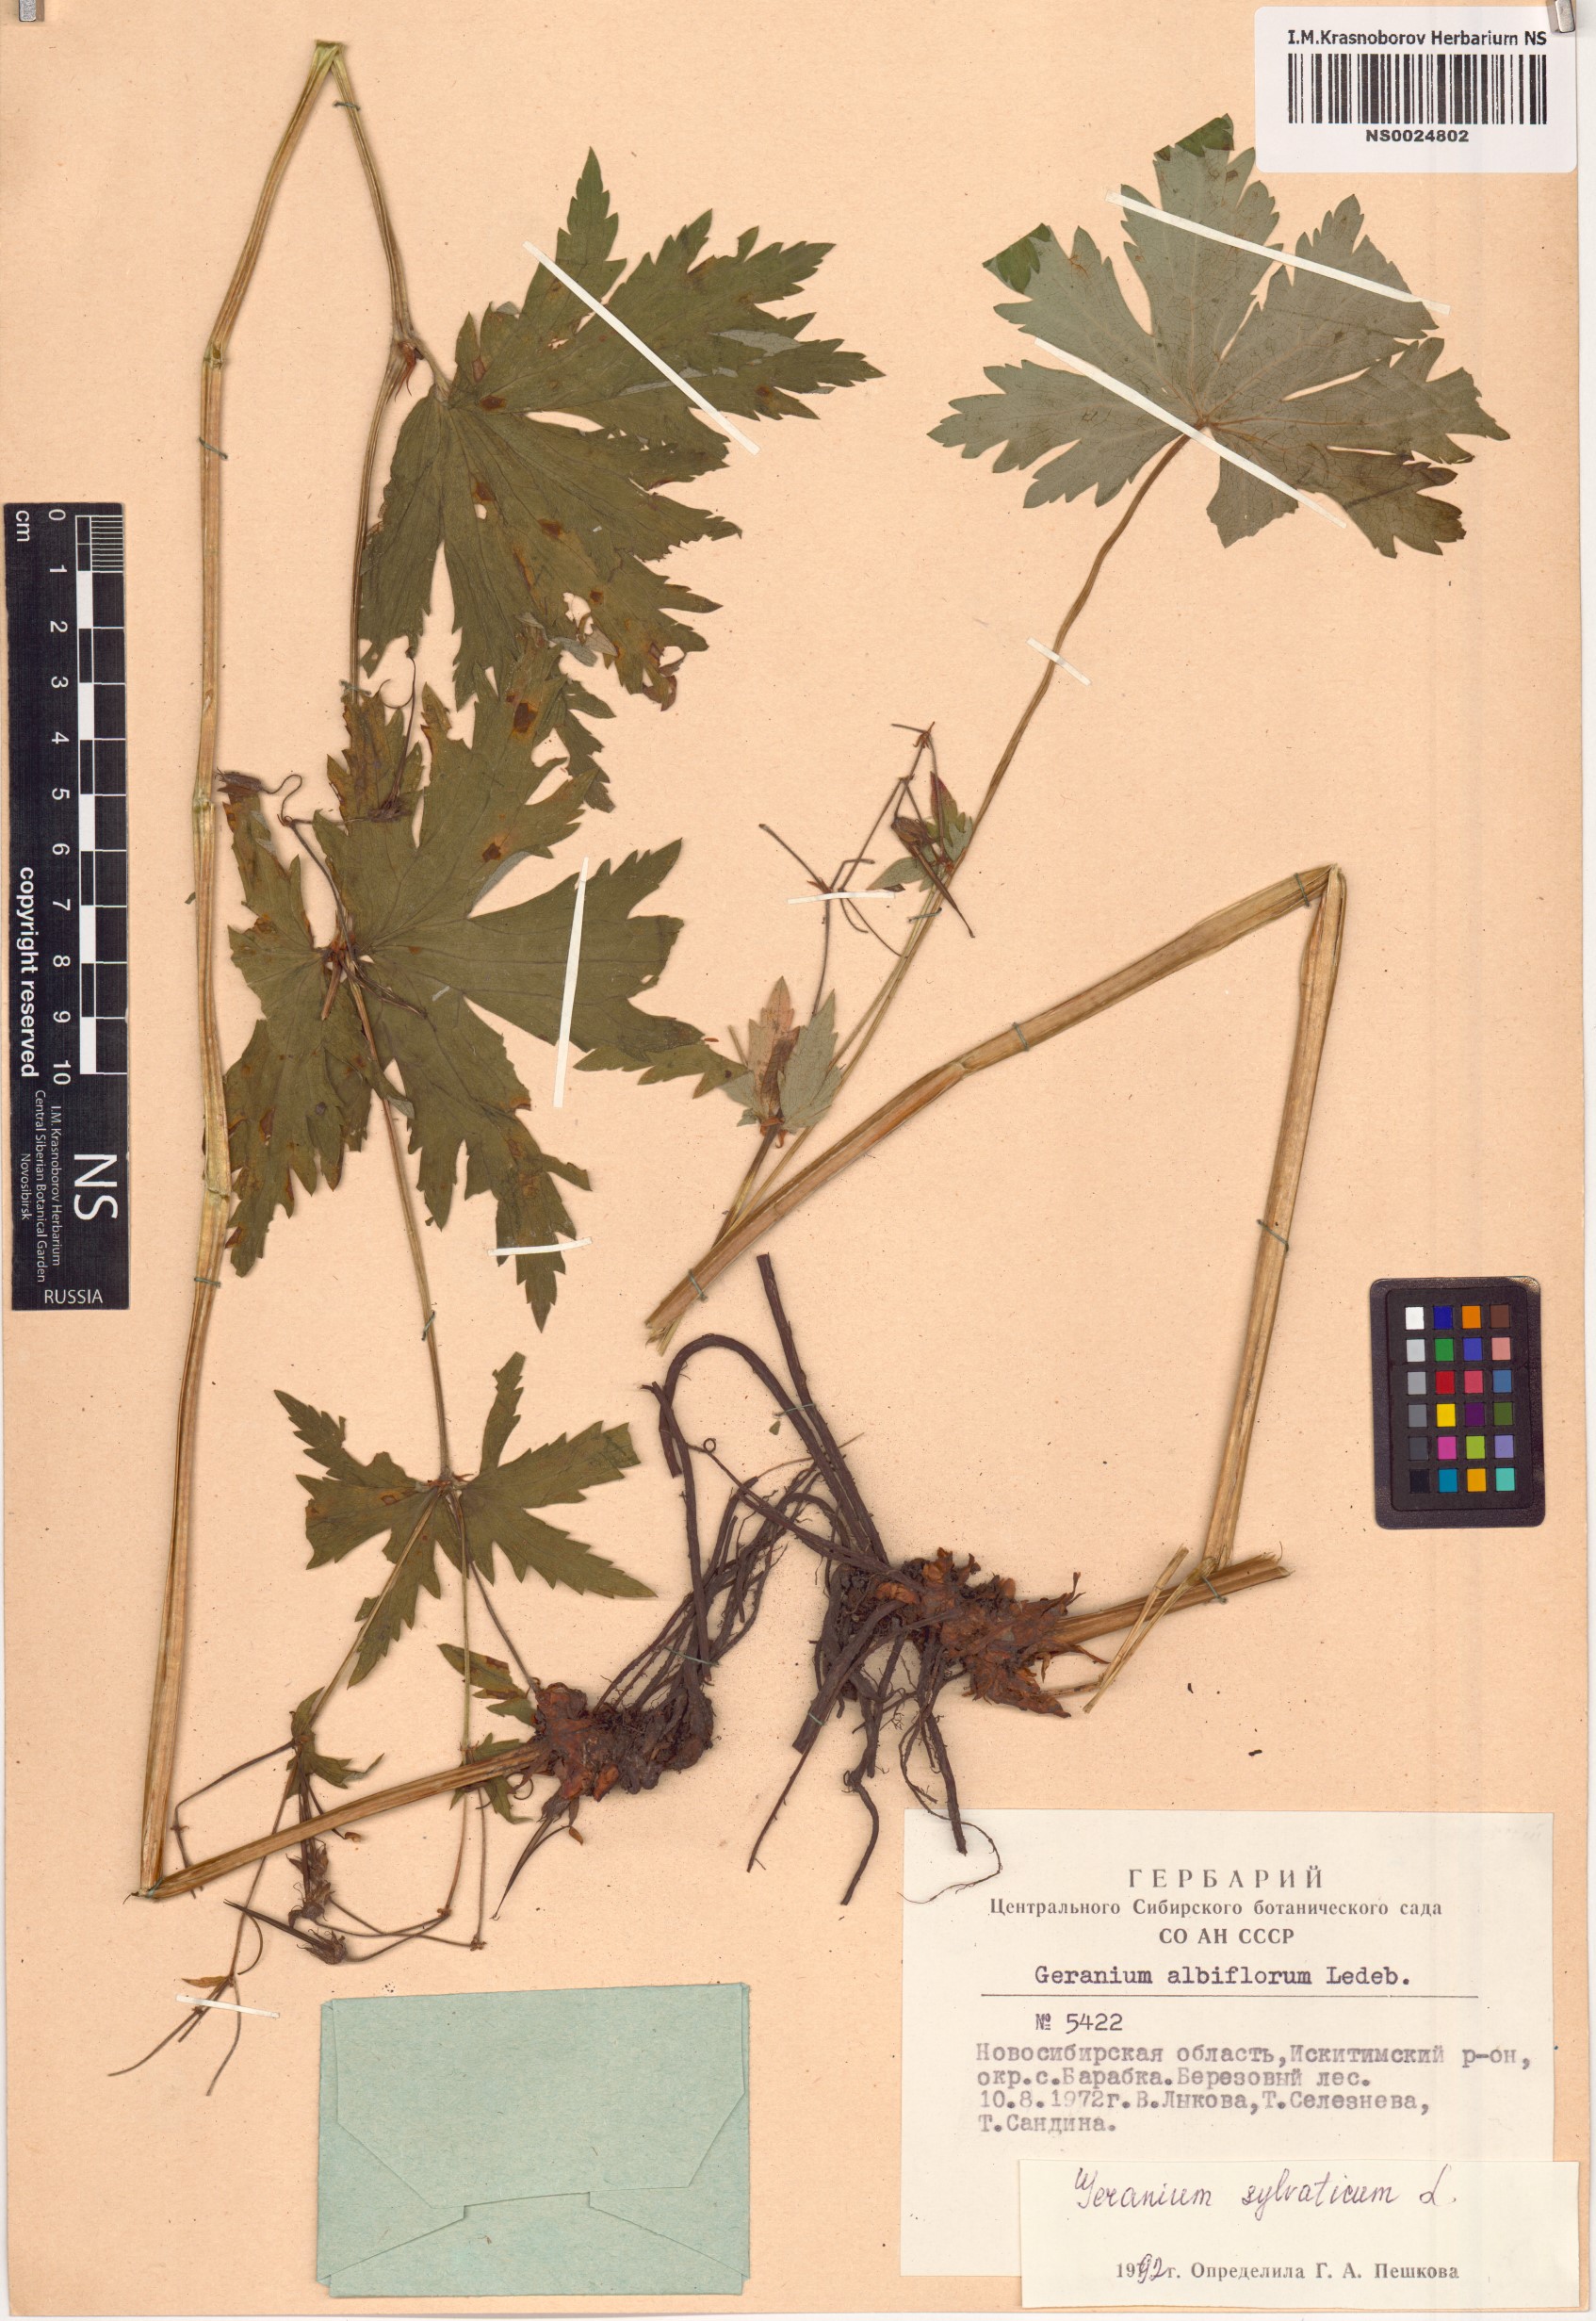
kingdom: Plantae
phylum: Tracheophyta
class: Magnoliopsida
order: Geraniales
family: Geraniaceae
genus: Geranium
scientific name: Geranium sylvaticum
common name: Wood crane's-bill
